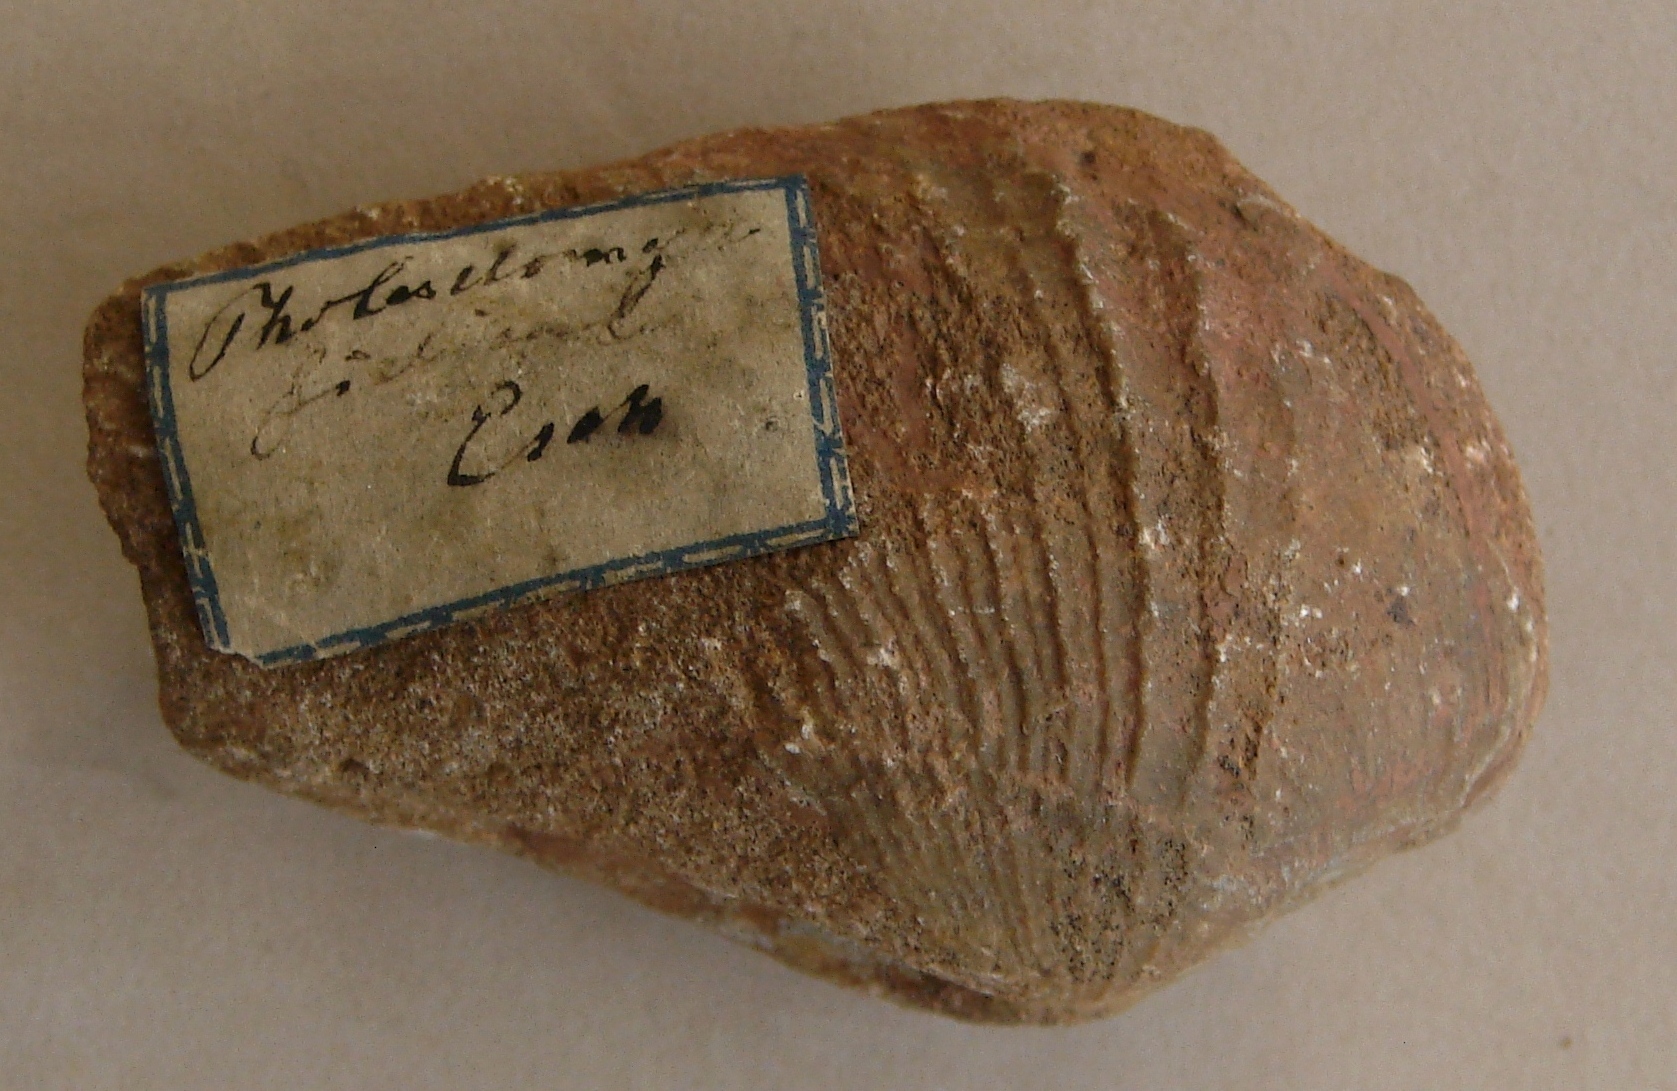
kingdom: Animalia
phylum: Mollusca
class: Bivalvia
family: Pholadomyidae
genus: Pholadomya
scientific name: Pholadomya fidicula
